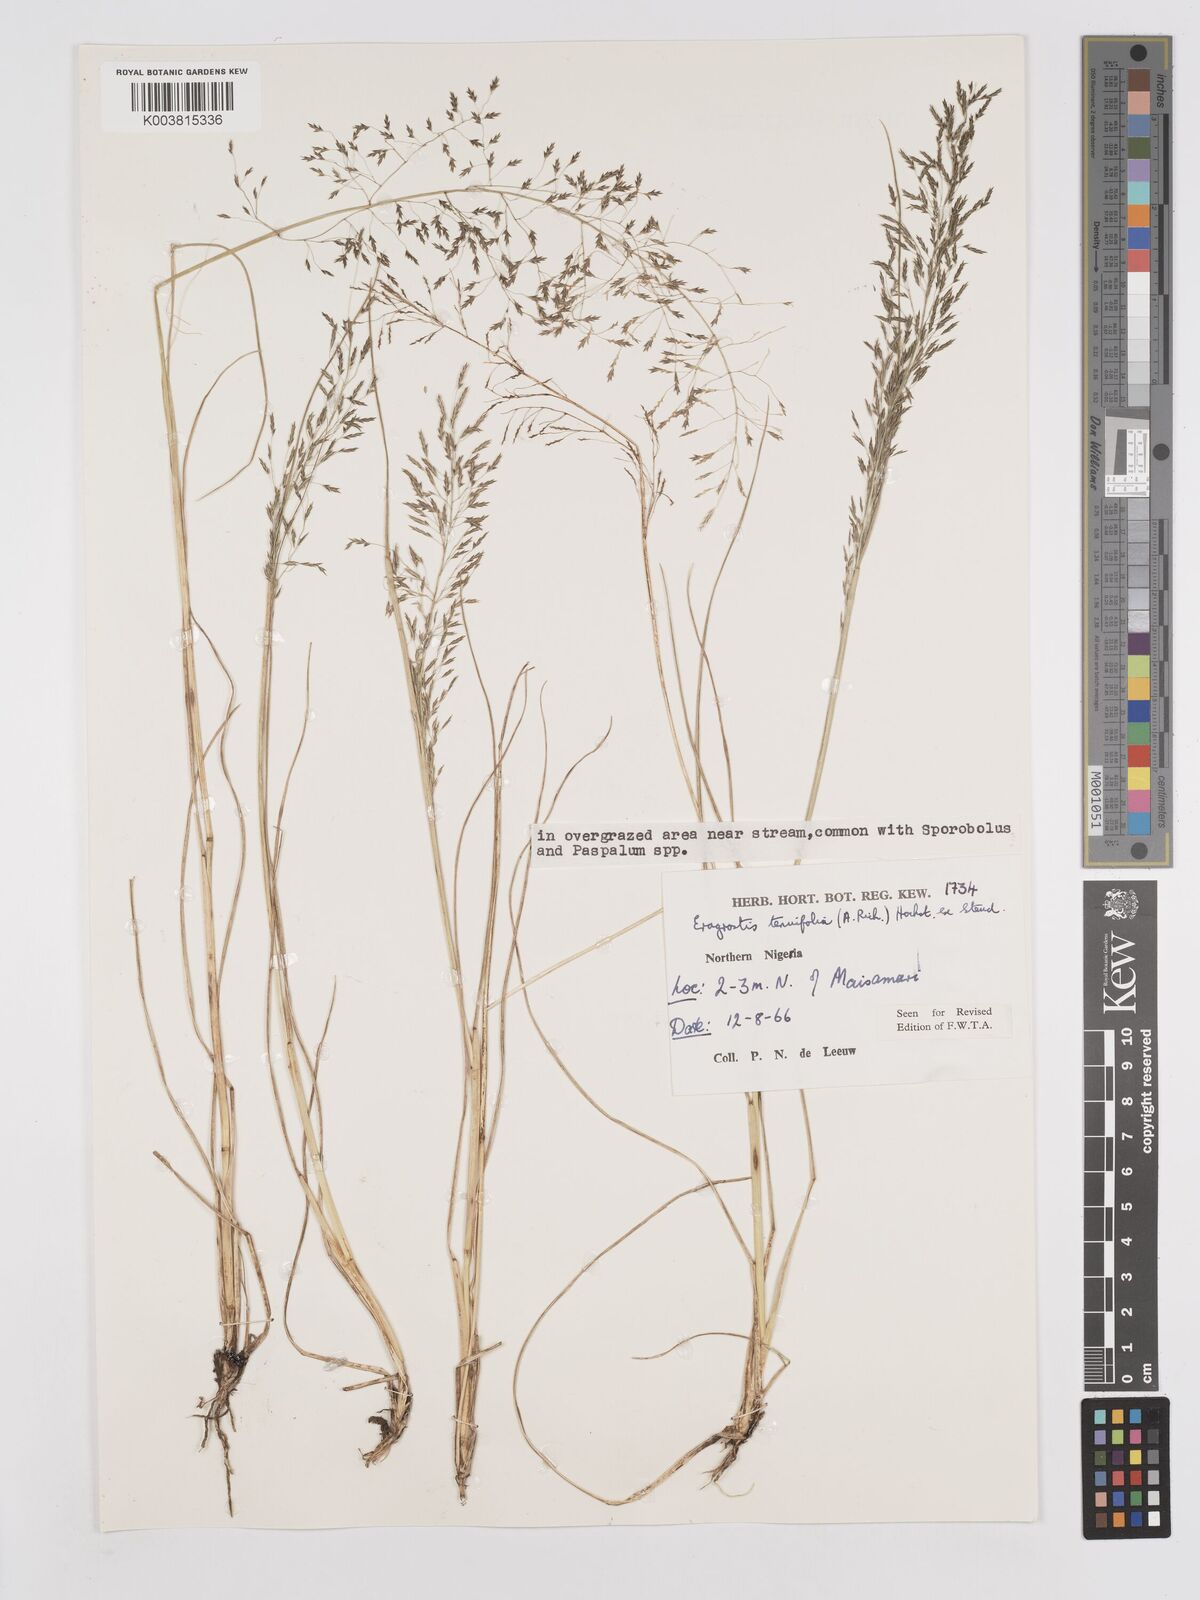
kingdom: Plantae
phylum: Tracheophyta
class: Liliopsida
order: Poales
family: Poaceae
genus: Eragrostis
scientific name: Eragrostis tenuifolia
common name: Elastic grass
